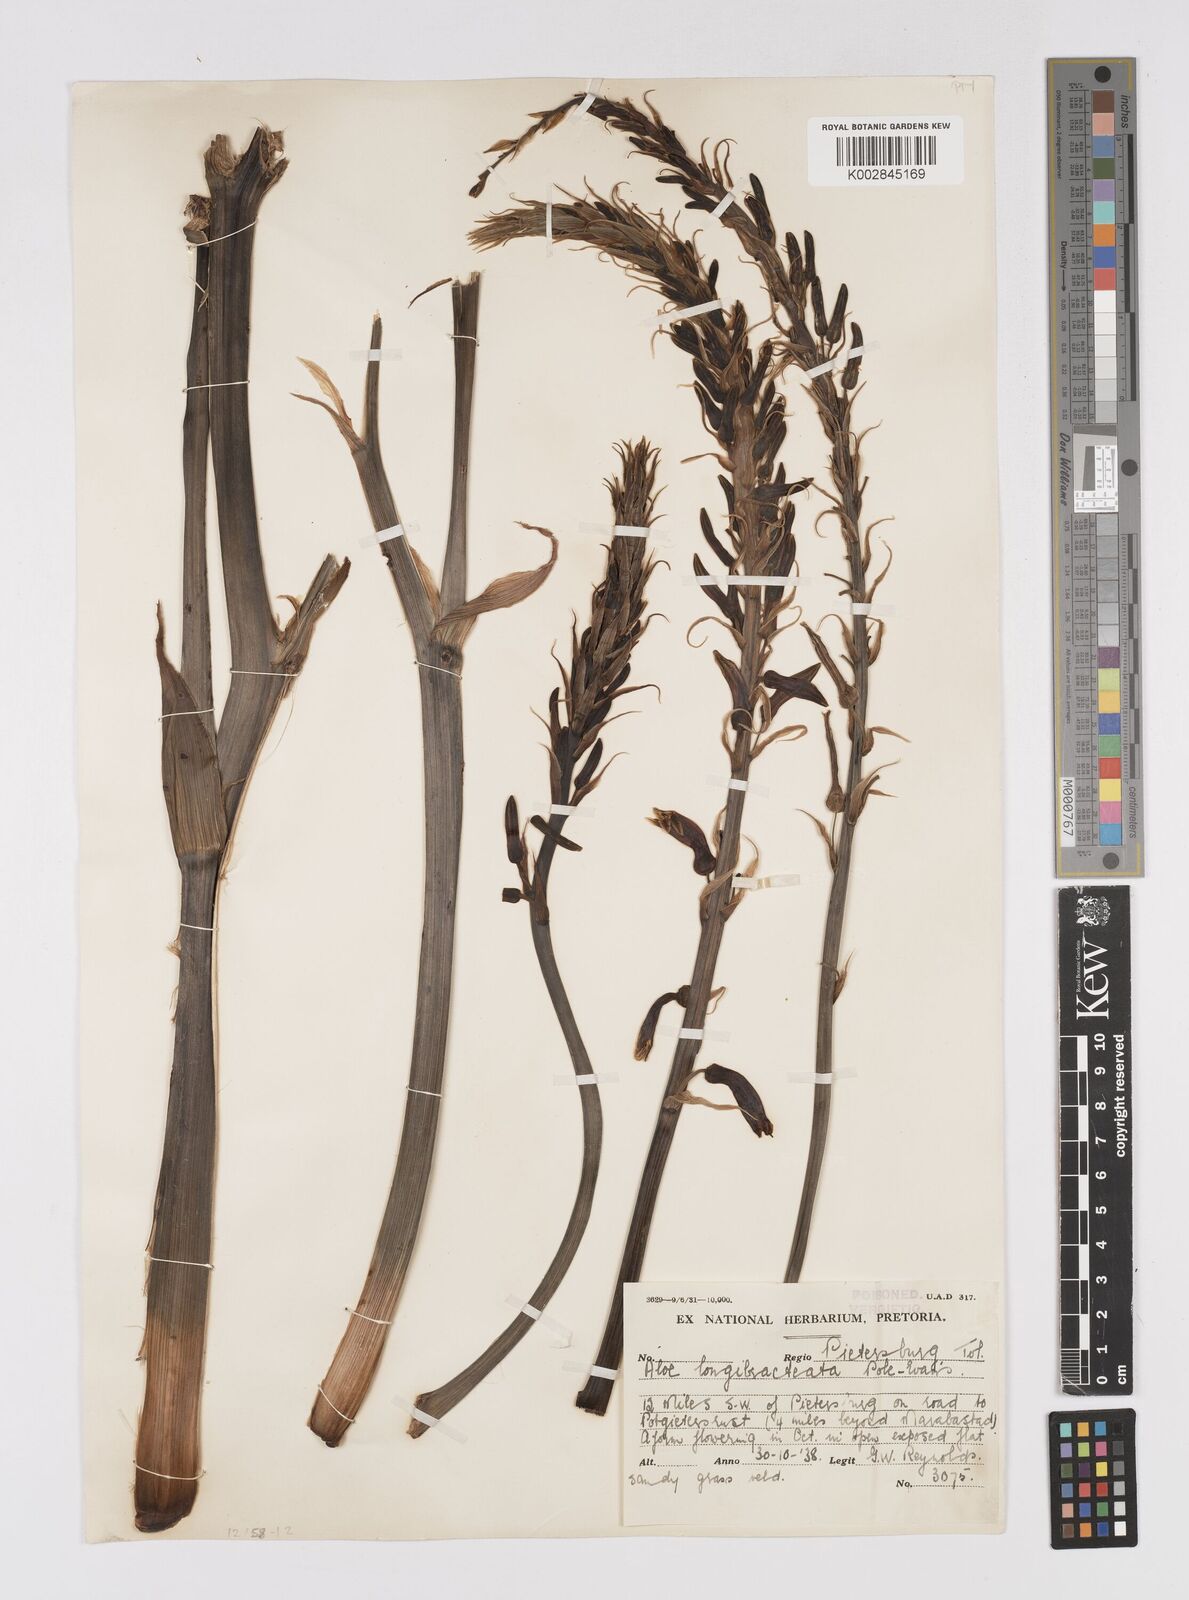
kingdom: Plantae
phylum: Tracheophyta
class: Liliopsida
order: Asparagales
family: Asphodelaceae
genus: Aloe
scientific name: Aloe longibracteata
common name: Limpopo spotted aloe
